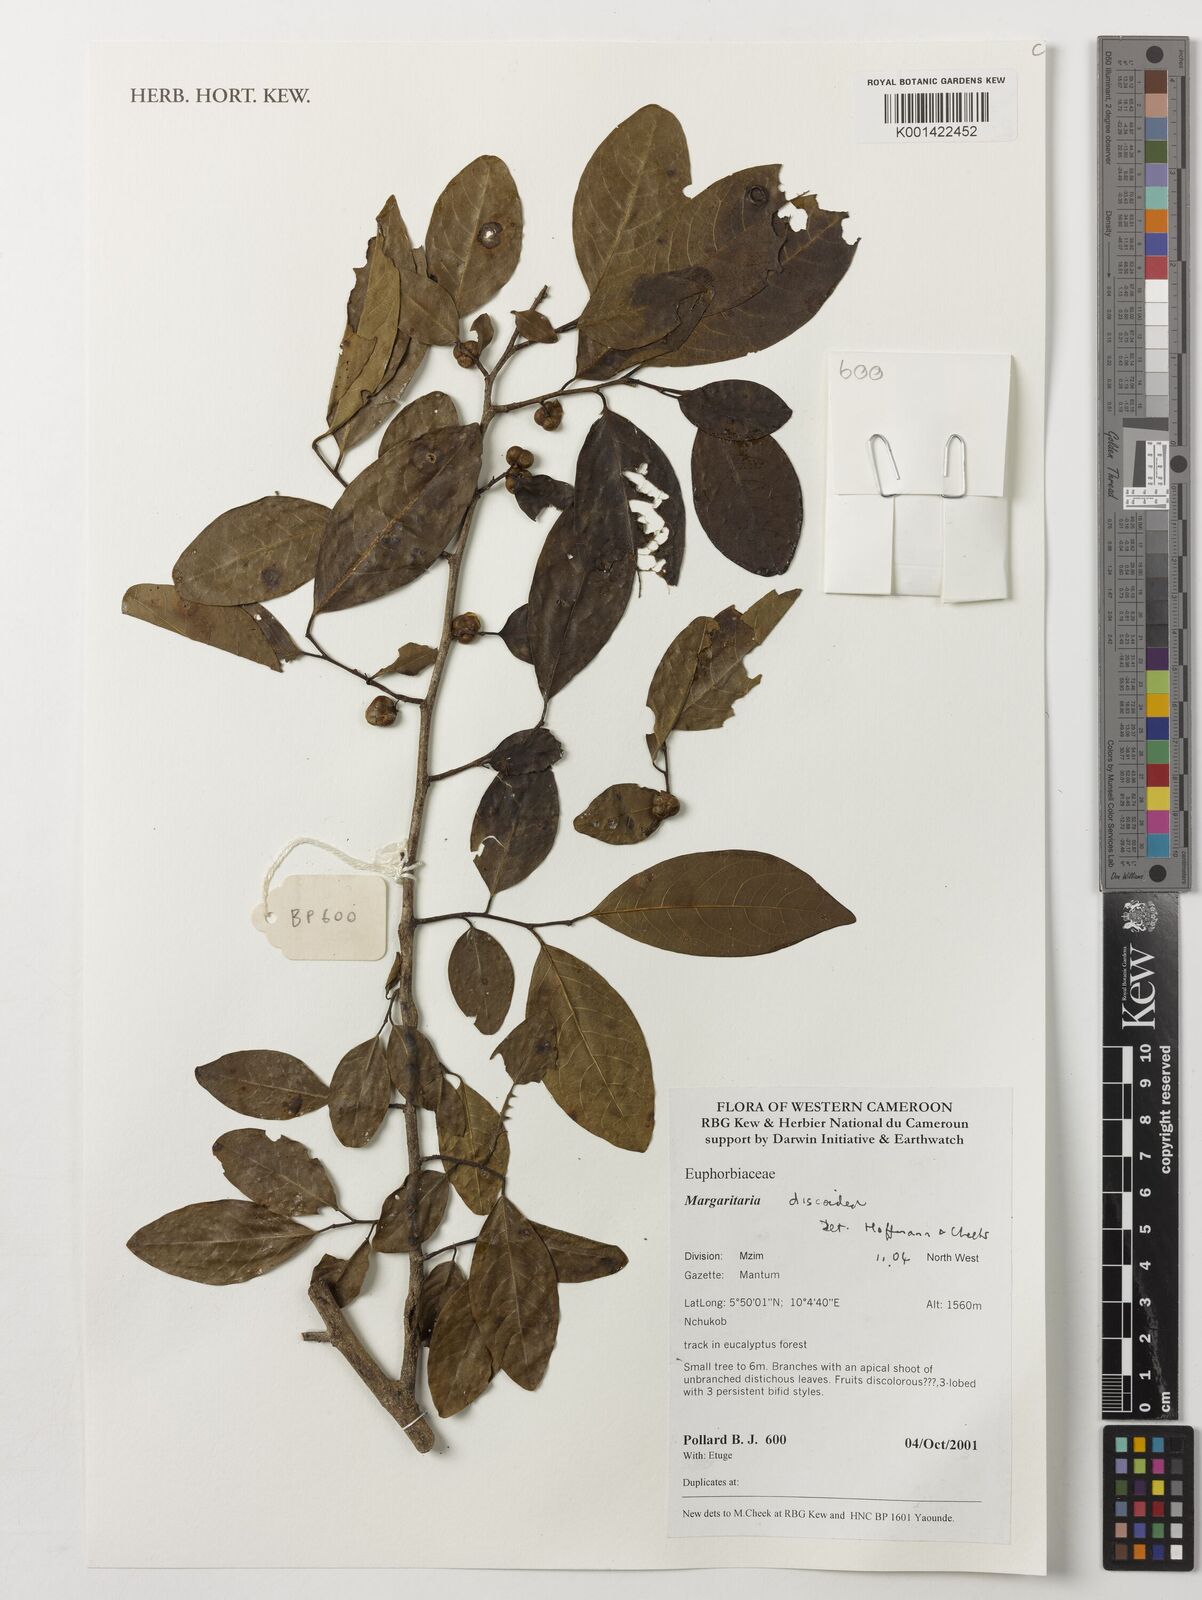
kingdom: Plantae
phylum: Tracheophyta
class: Magnoliopsida
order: Malpighiales
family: Phyllanthaceae
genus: Margaritaria
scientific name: Margaritaria discoidea
